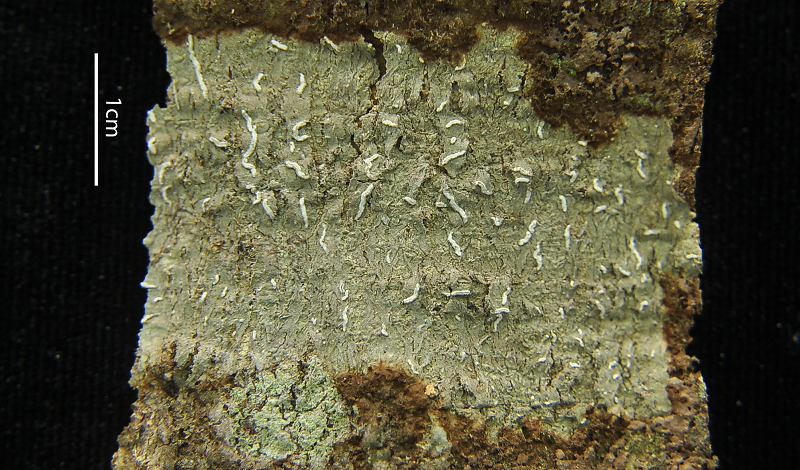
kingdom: Fungi
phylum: Ascomycota
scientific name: Ascomycota
